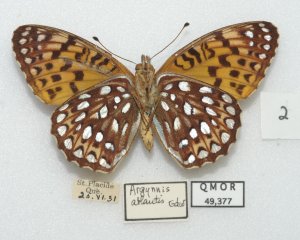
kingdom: Animalia
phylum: Arthropoda
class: Insecta
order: Lepidoptera
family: Nymphalidae
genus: Speyeria
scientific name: Speyeria atlantis
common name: Atlantis Fritillary
